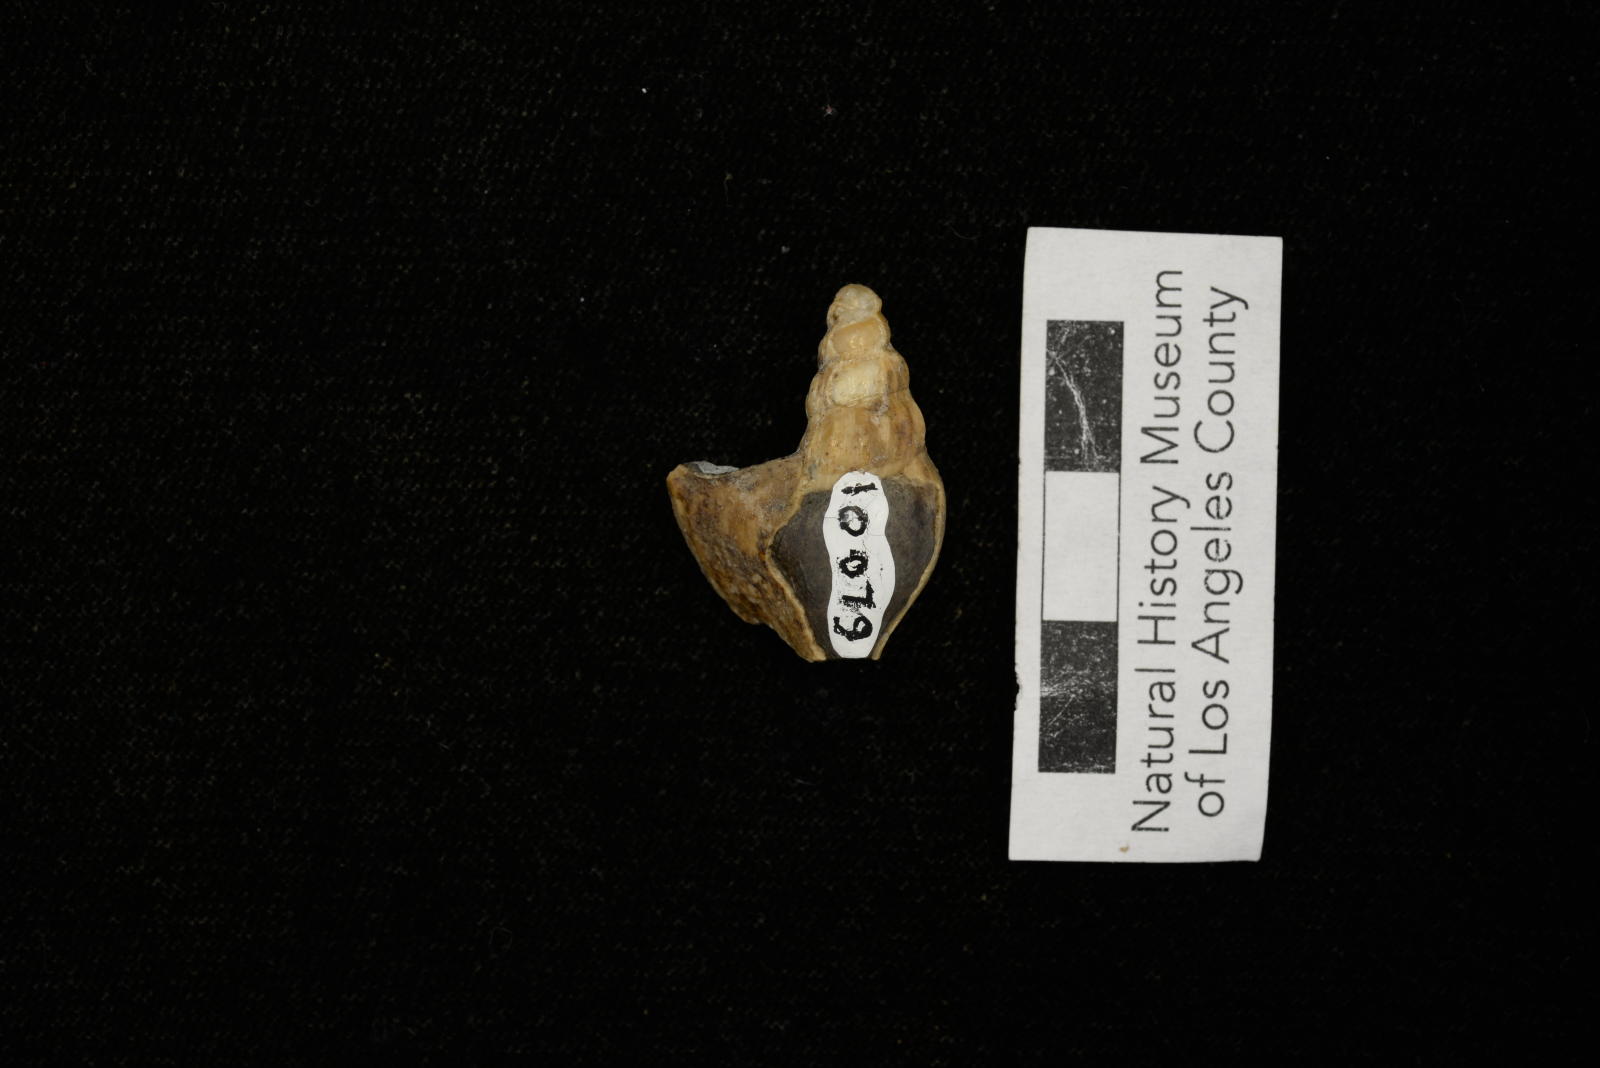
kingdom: Animalia
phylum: Mollusca
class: Gastropoda
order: Littorinimorpha
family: Aporrhaidae
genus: Latiala
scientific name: Latiala Alaria nodosa
